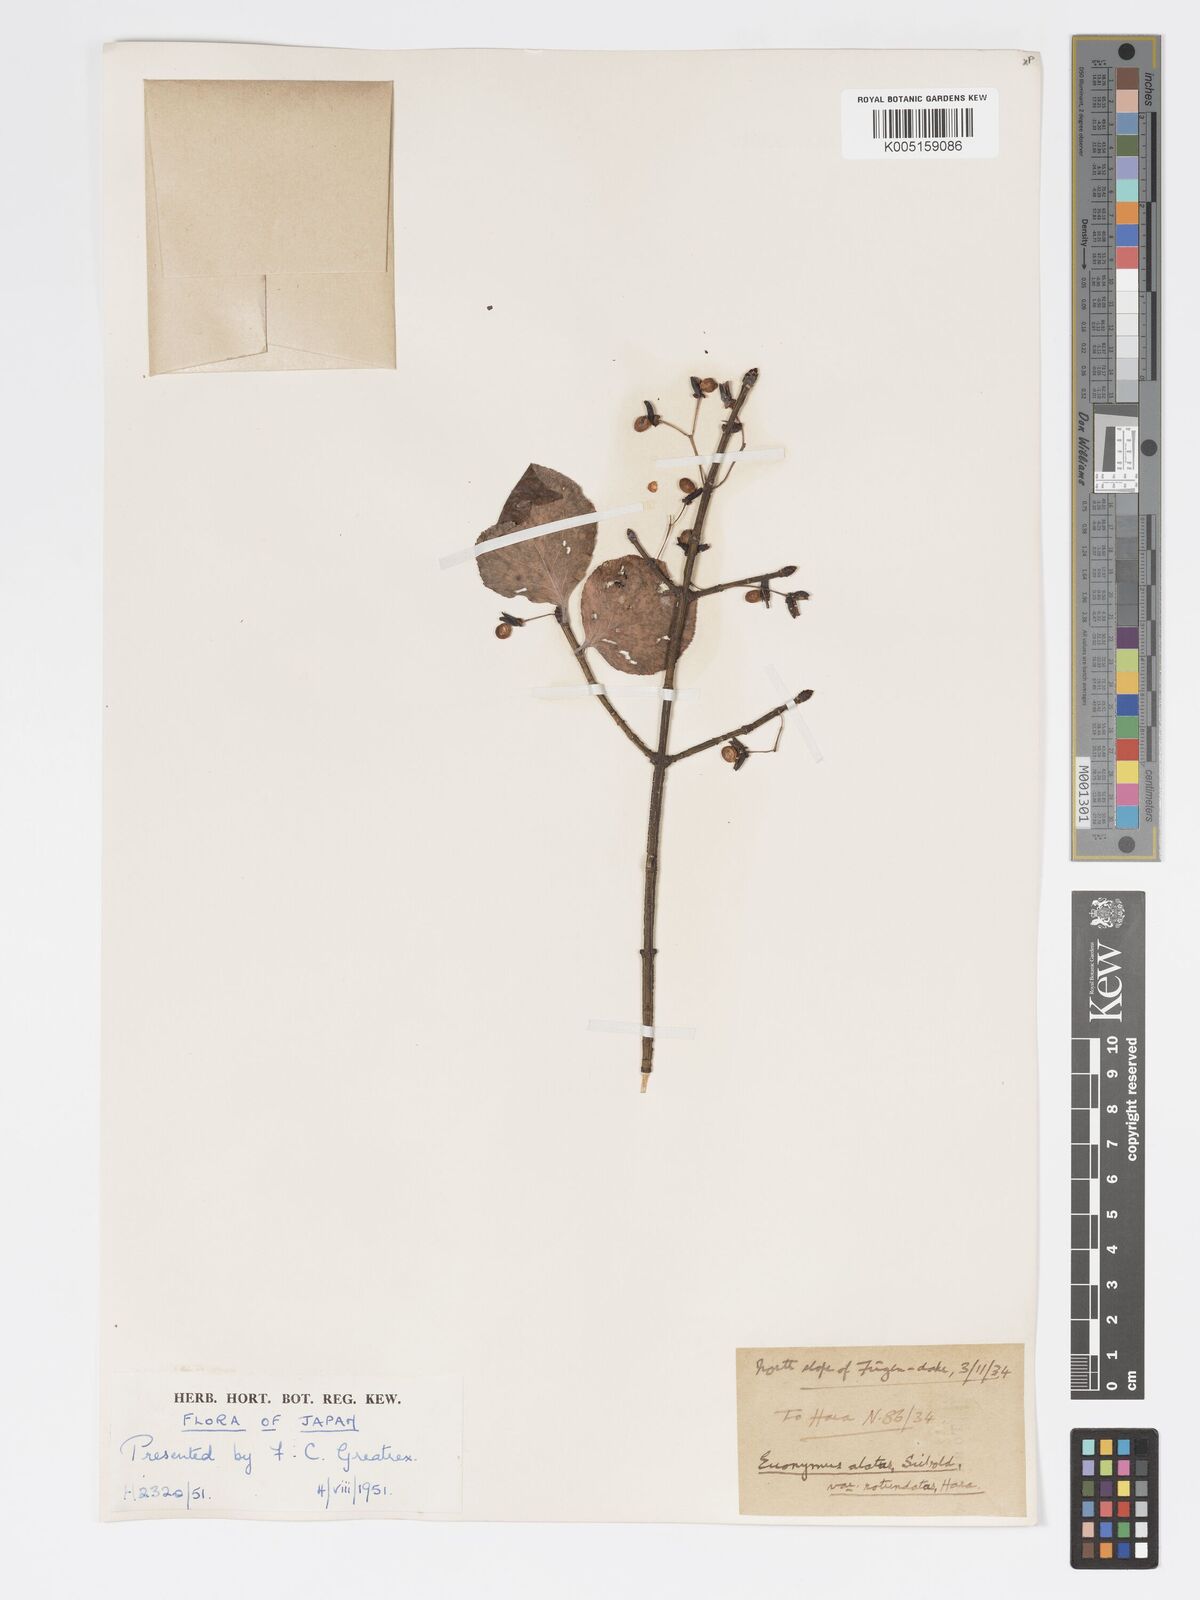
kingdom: Plantae
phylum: Tracheophyta
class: Magnoliopsida
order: Celastrales
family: Celastraceae
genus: Euonymus
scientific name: Euonymus
